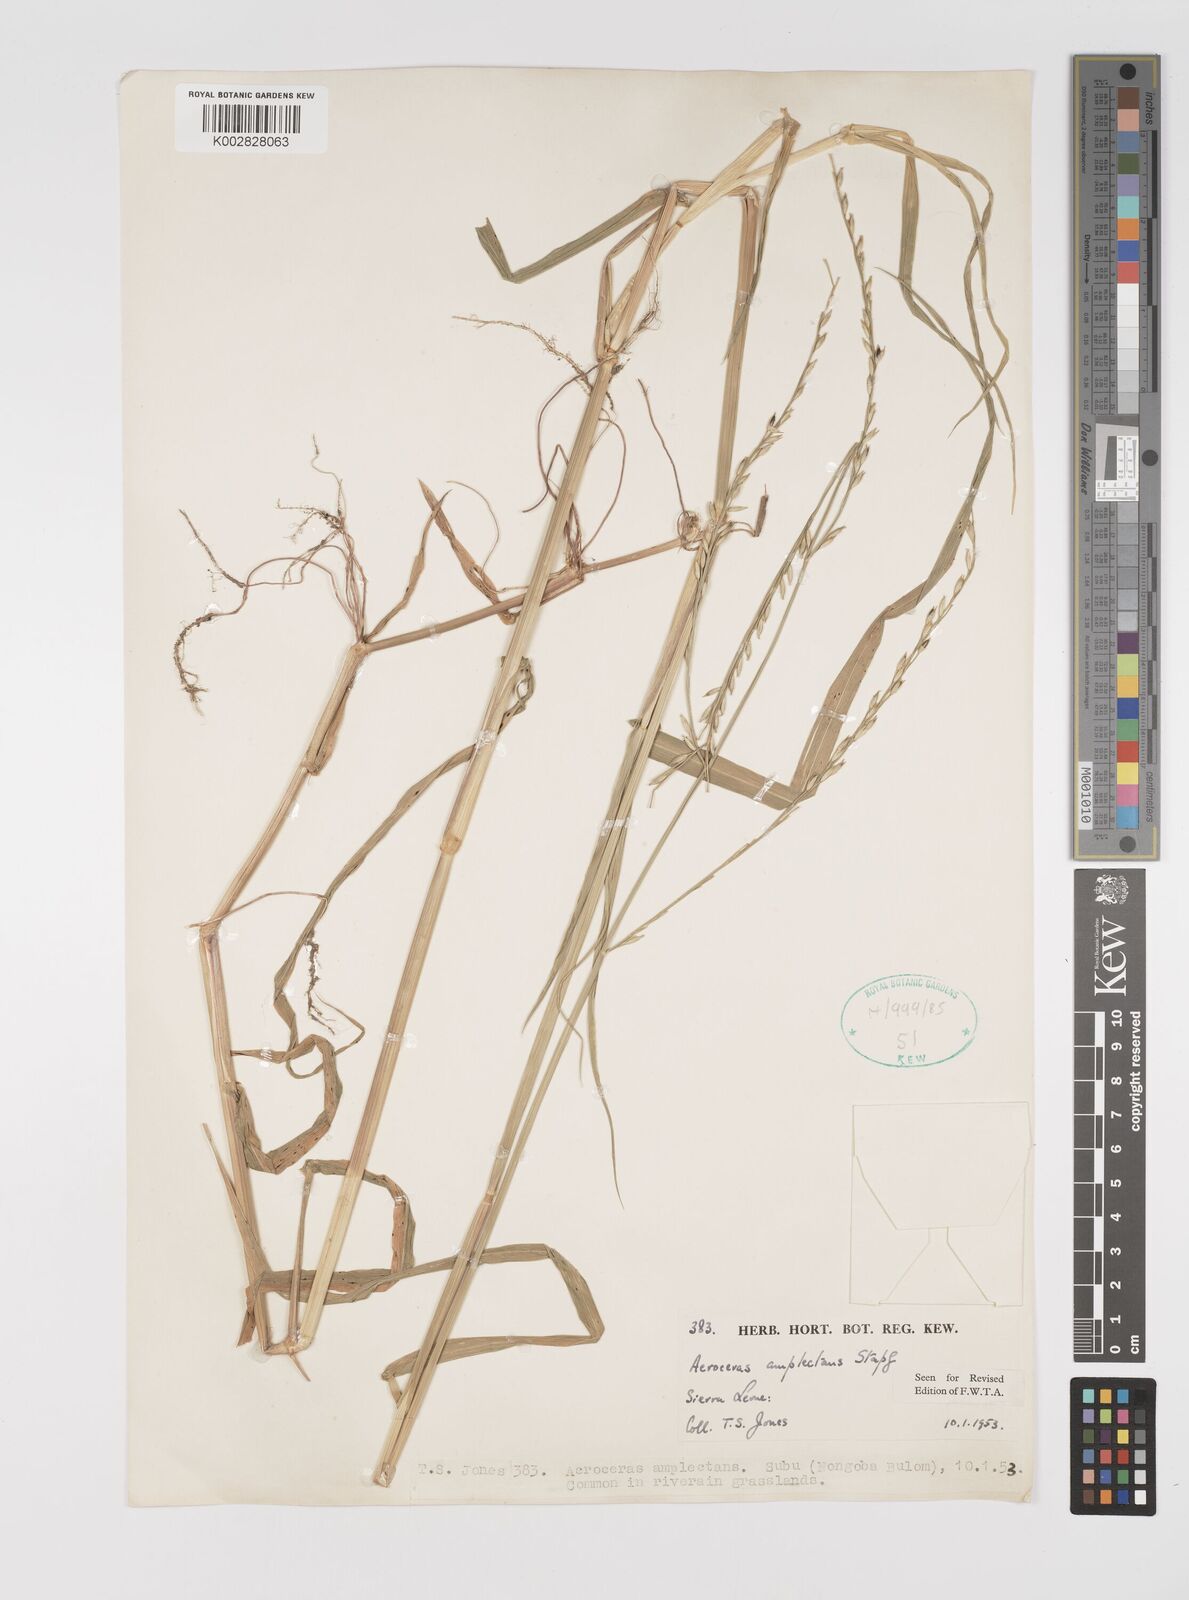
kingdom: Plantae
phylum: Tracheophyta
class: Liliopsida
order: Poales
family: Poaceae
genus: Acroceras
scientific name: Acroceras amplectens
